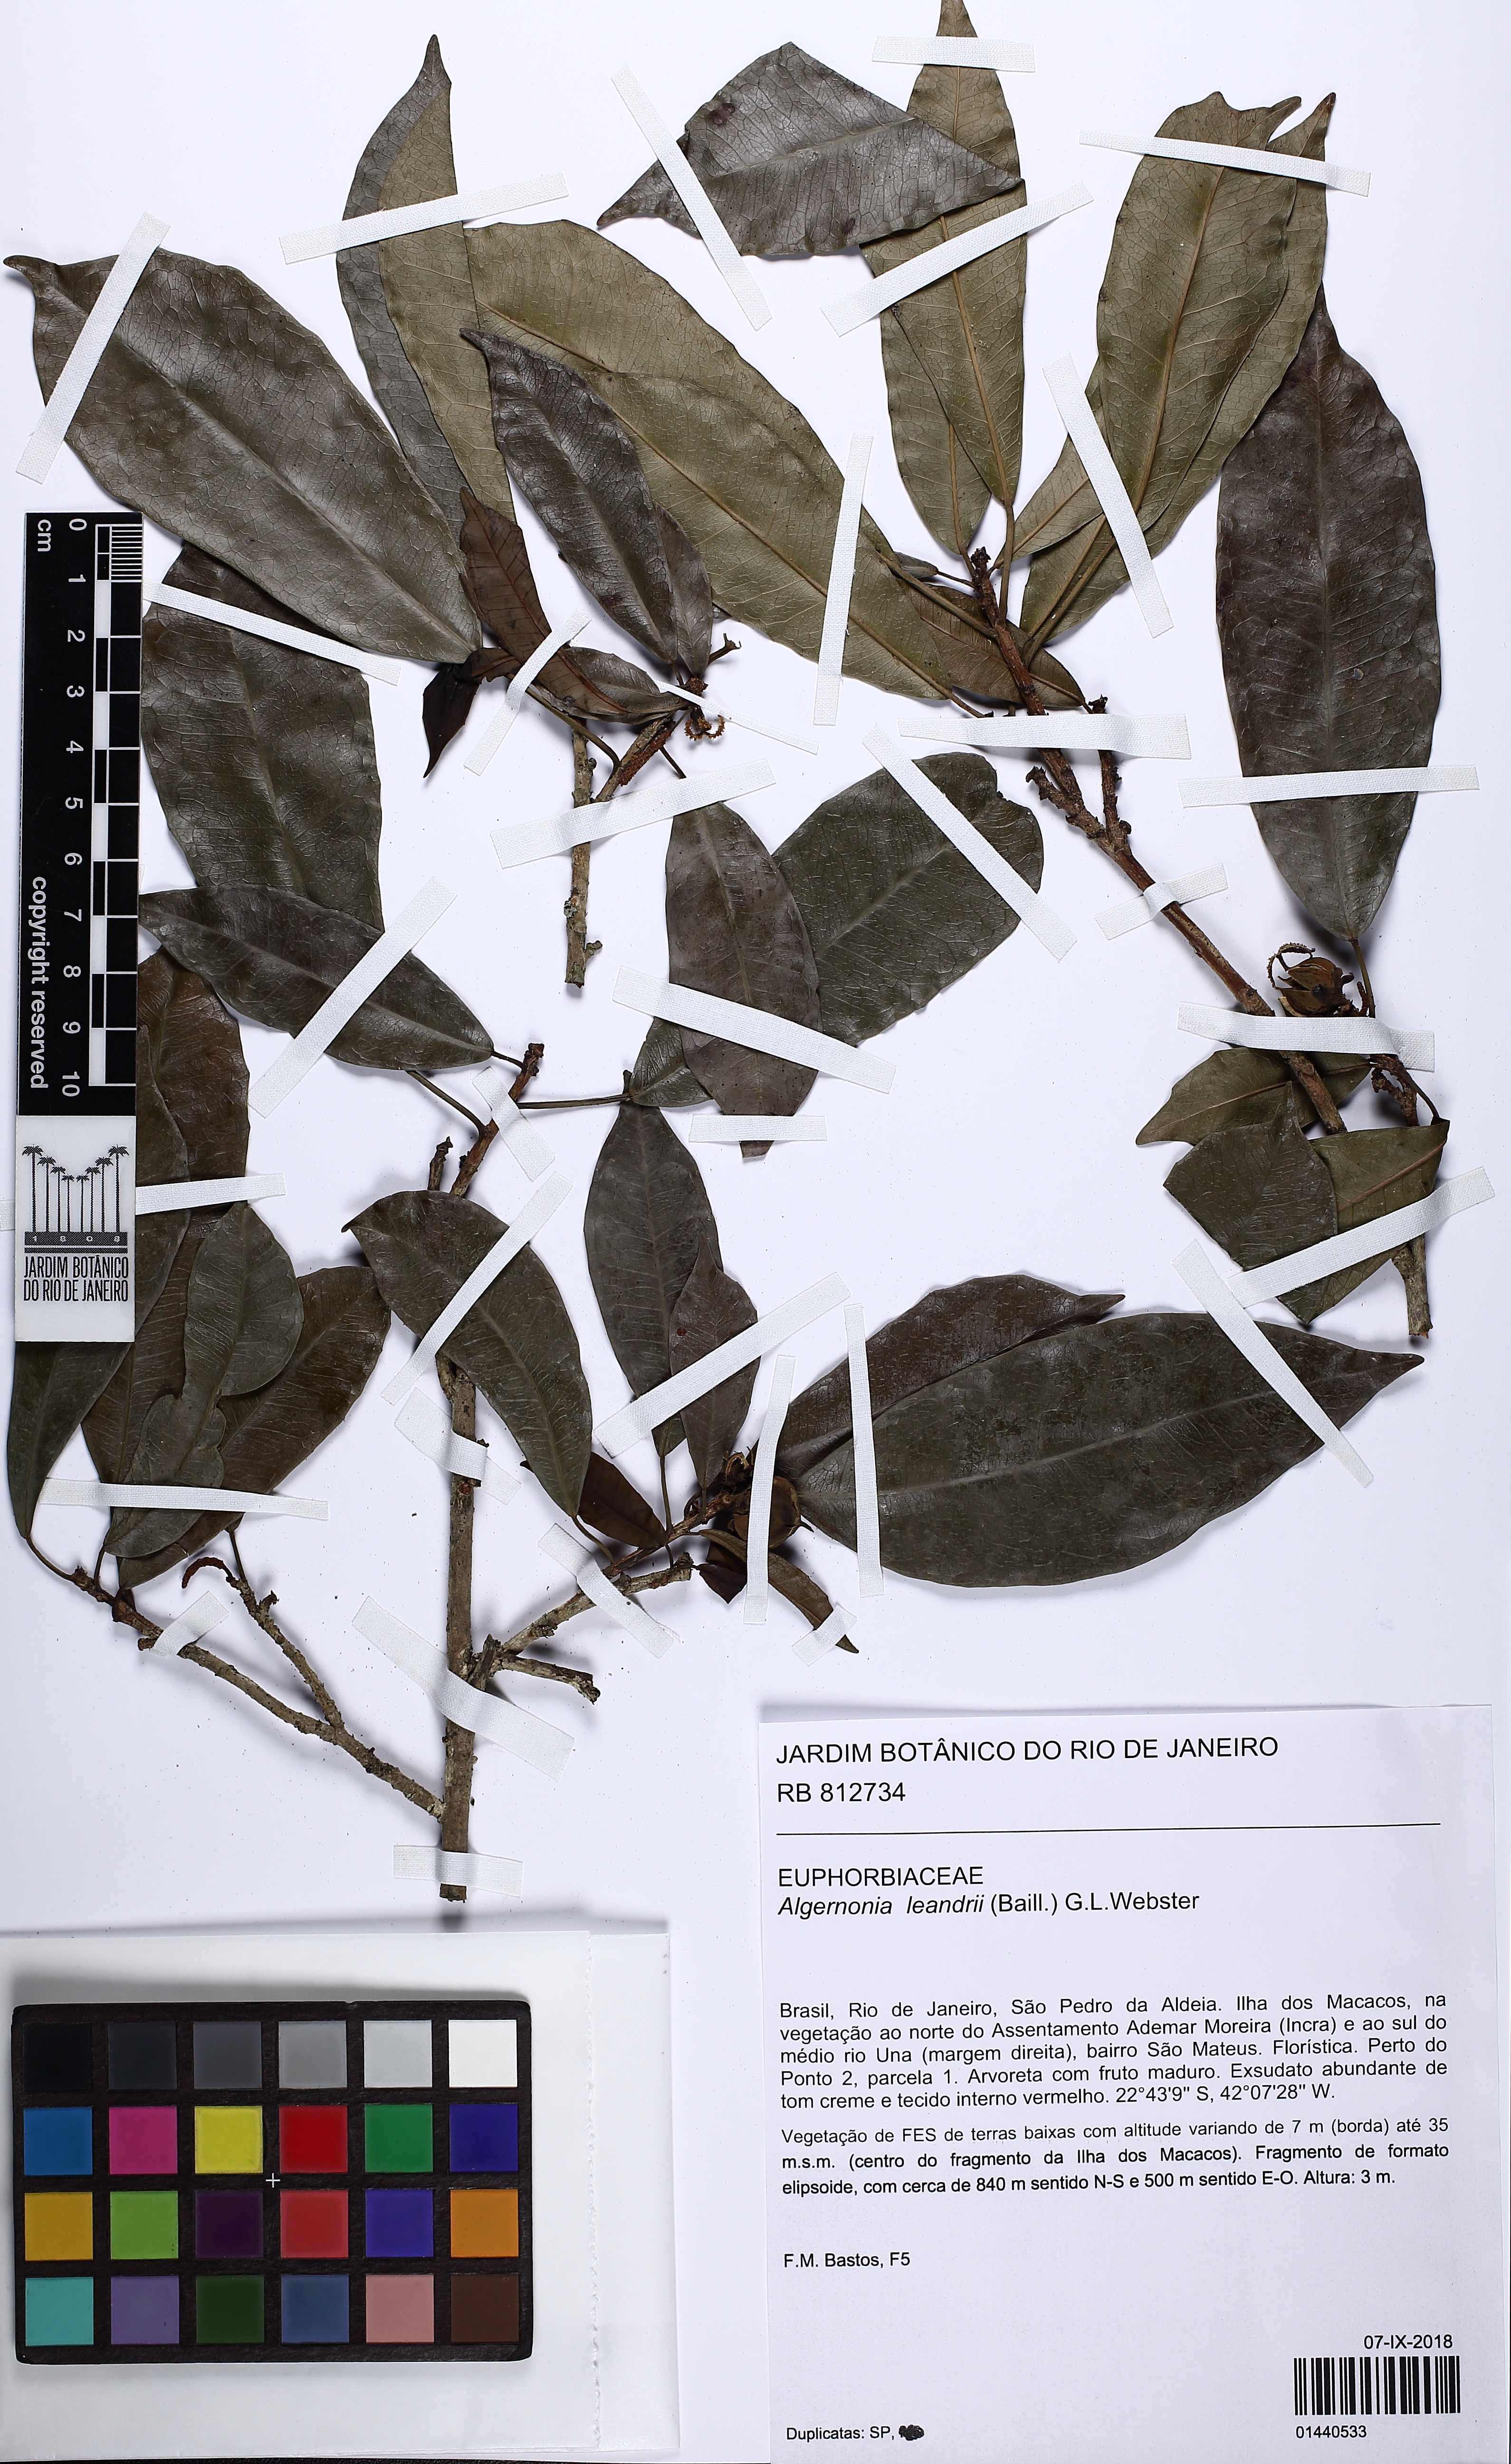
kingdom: Plantae
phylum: Tracheophyta
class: Magnoliopsida
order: Malpighiales
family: Euphorbiaceae
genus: Algernonia
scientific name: Algernonia leandrii
